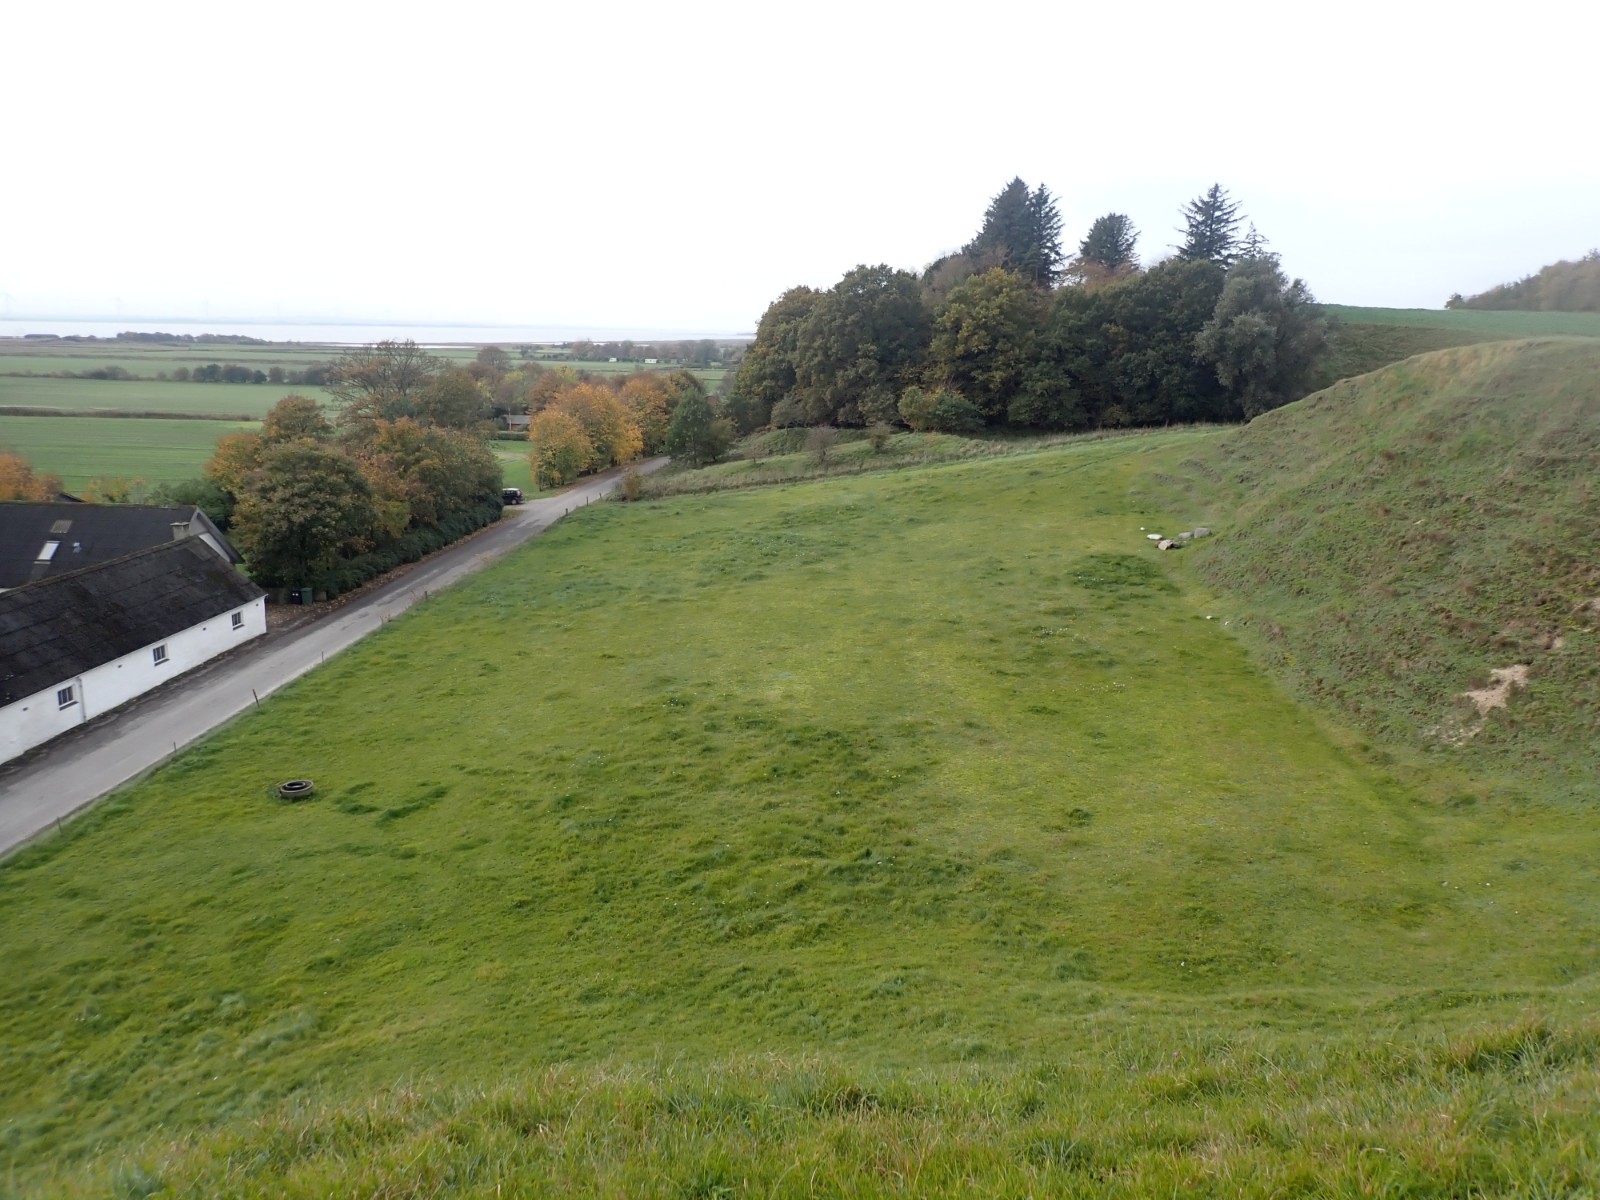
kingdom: Fungi
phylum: Basidiomycota
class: Agaricomycetes
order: Agaricales
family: Hygrophoraceae
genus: Cuphophyllus
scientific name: Cuphophyllus virgineus
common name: isabella-vokshat
